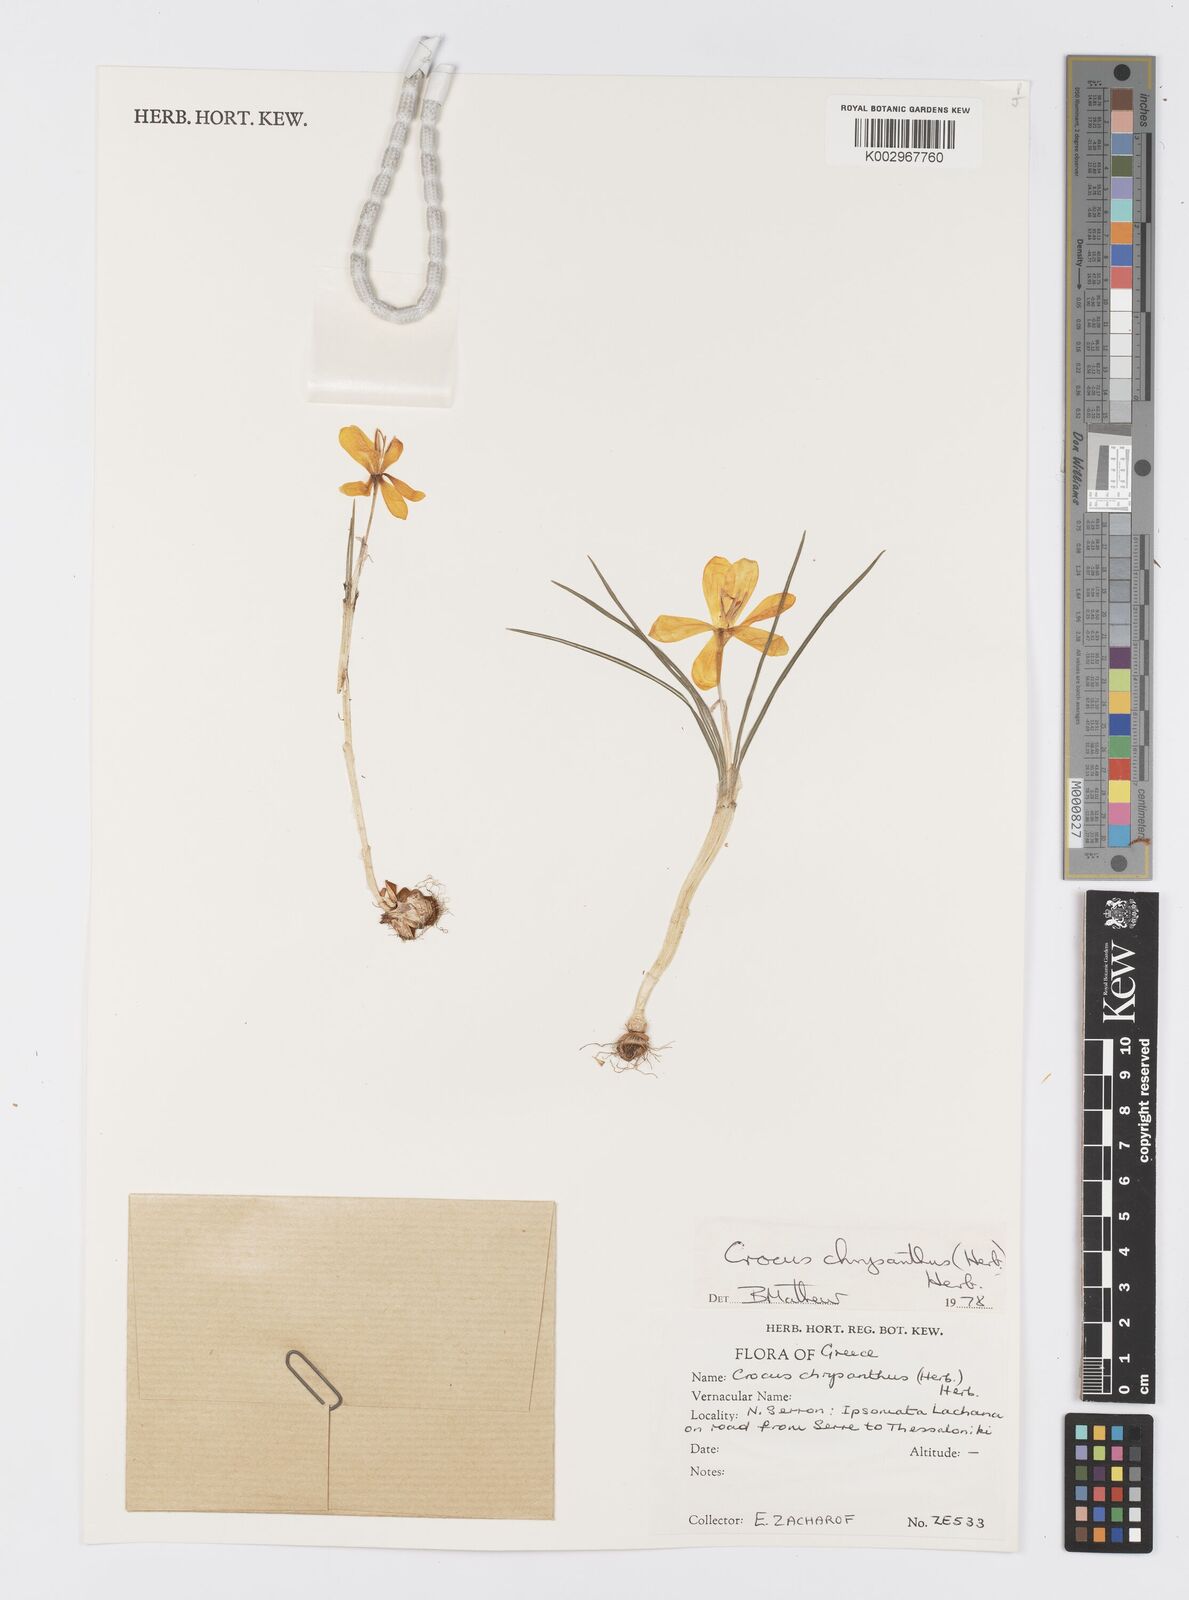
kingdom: Plantae
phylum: Tracheophyta
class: Liliopsida
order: Asparagales
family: Iridaceae
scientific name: Iridaceae
